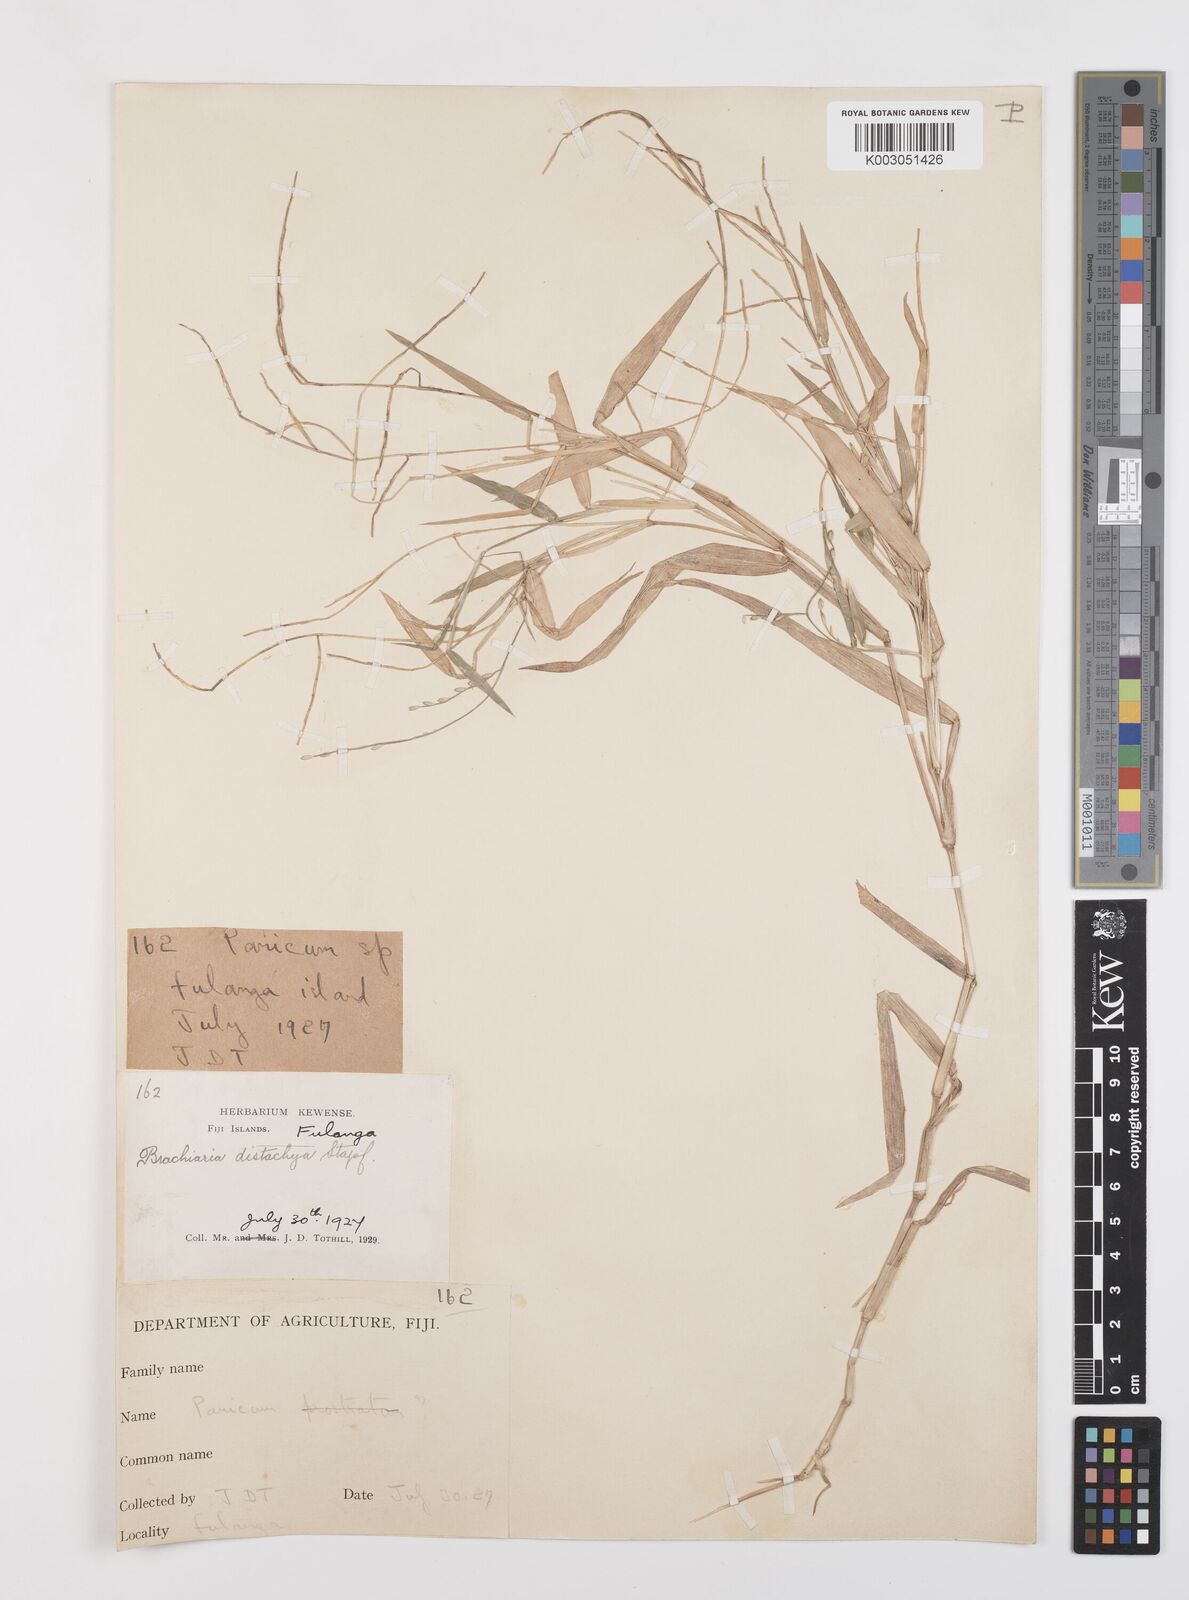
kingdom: Plantae
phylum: Tracheophyta
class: Liliopsida
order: Poales
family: Poaceae
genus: Urochloa
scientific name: Urochloa subquadripara
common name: Armgrass millet
